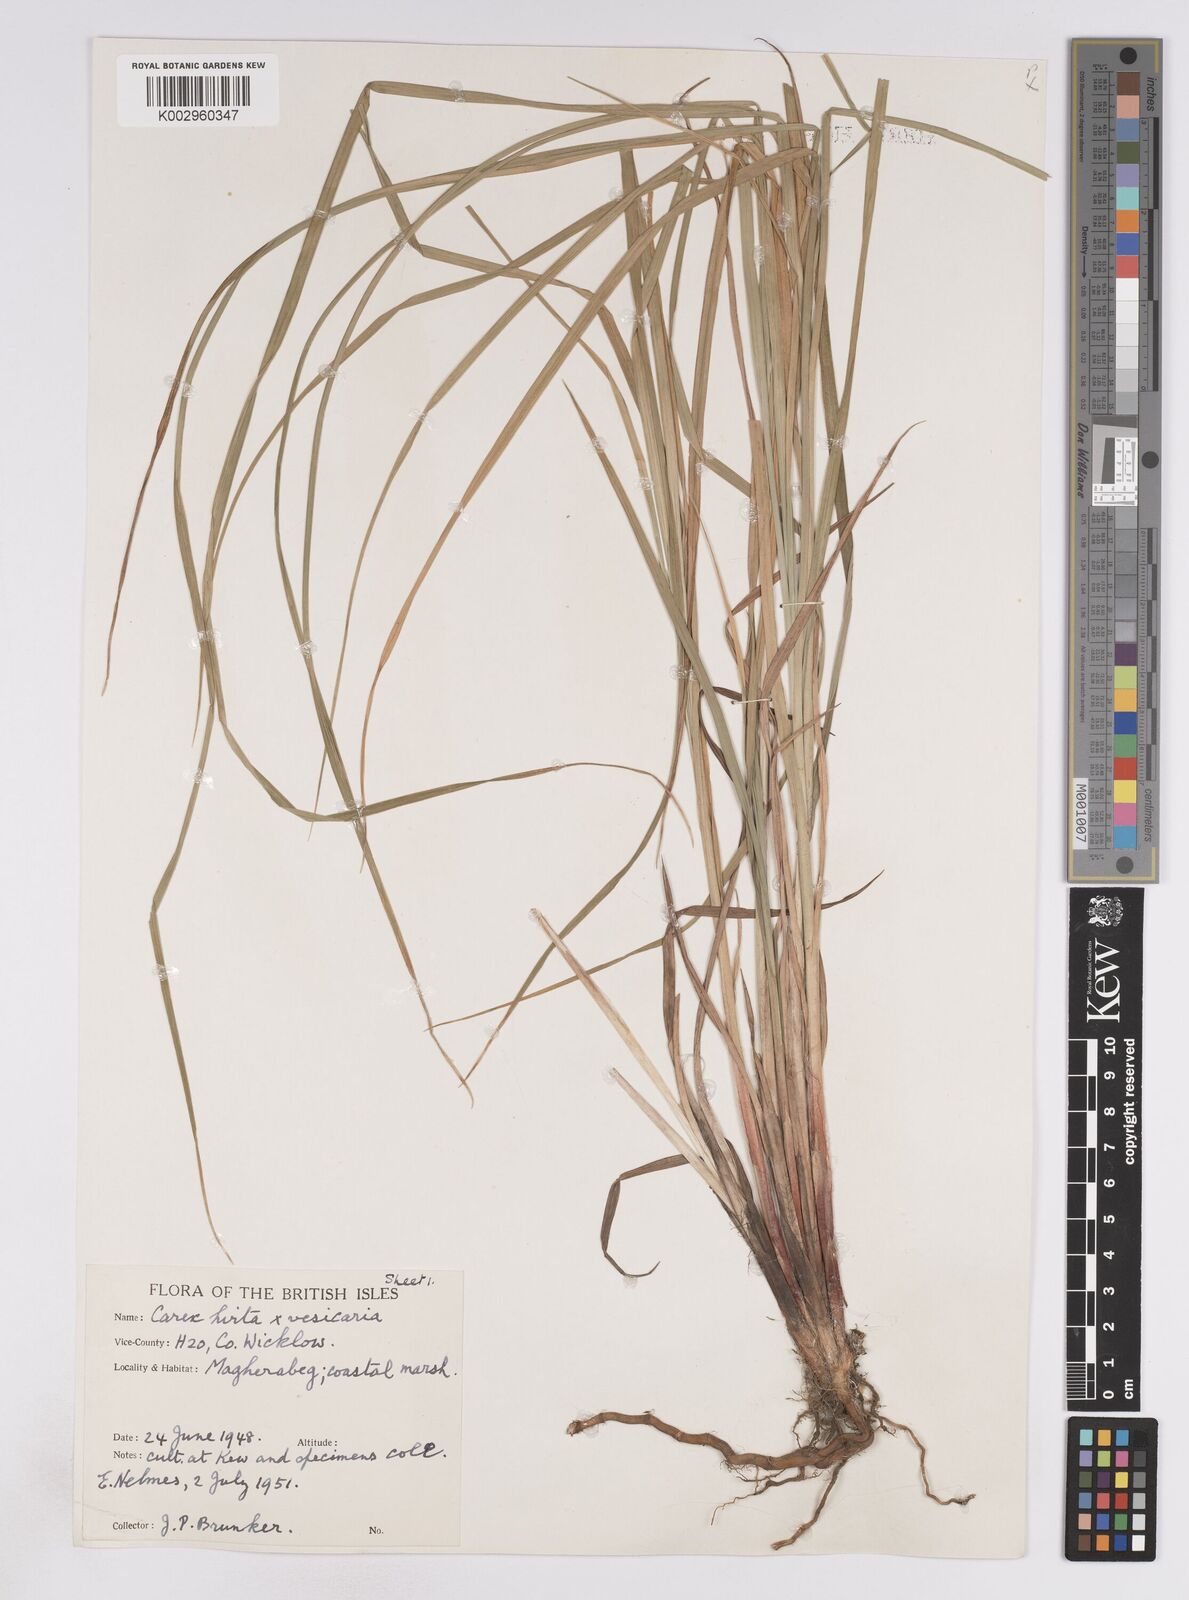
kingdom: Plantae
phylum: Tracheophyta
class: Liliopsida
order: Poales
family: Cyperaceae
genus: Carex
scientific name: Carex vesicaria
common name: Bladder-sedge
